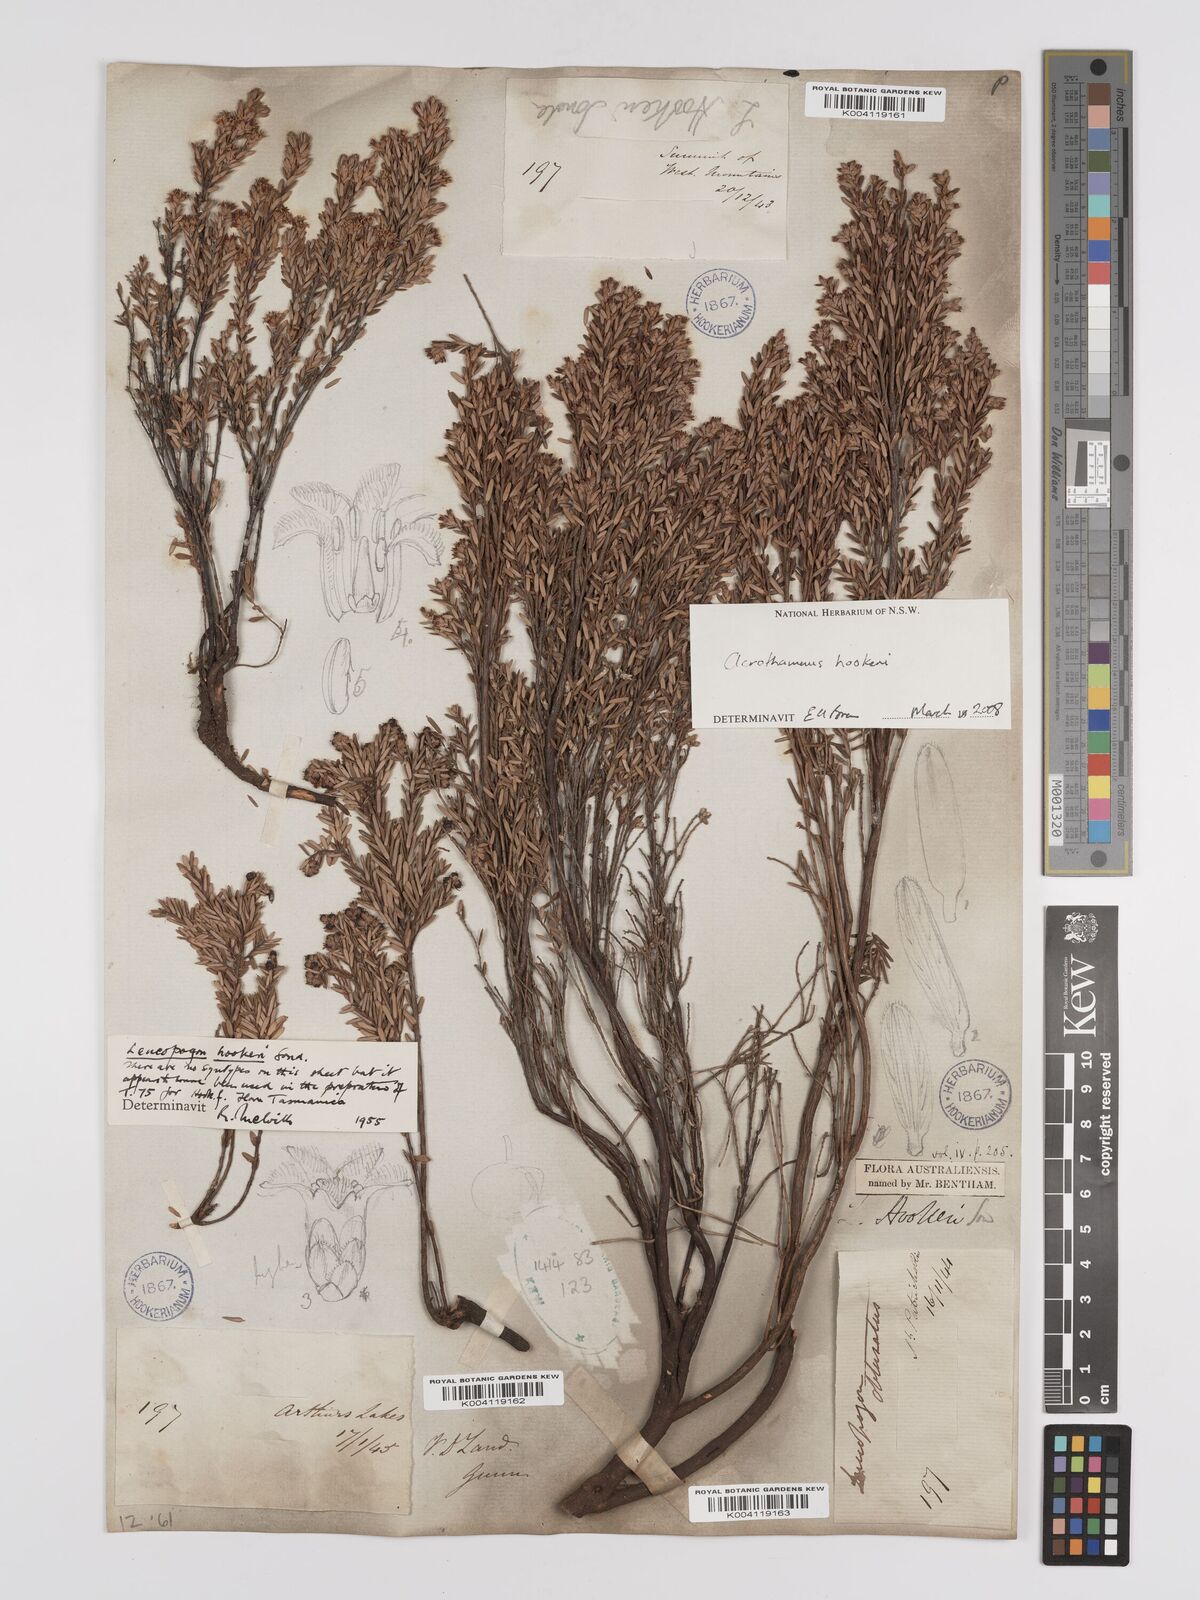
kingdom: Plantae
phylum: Tracheophyta
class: Magnoliopsida
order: Ericales
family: Ericaceae
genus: Acrothamnus
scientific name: Acrothamnus hookeri
